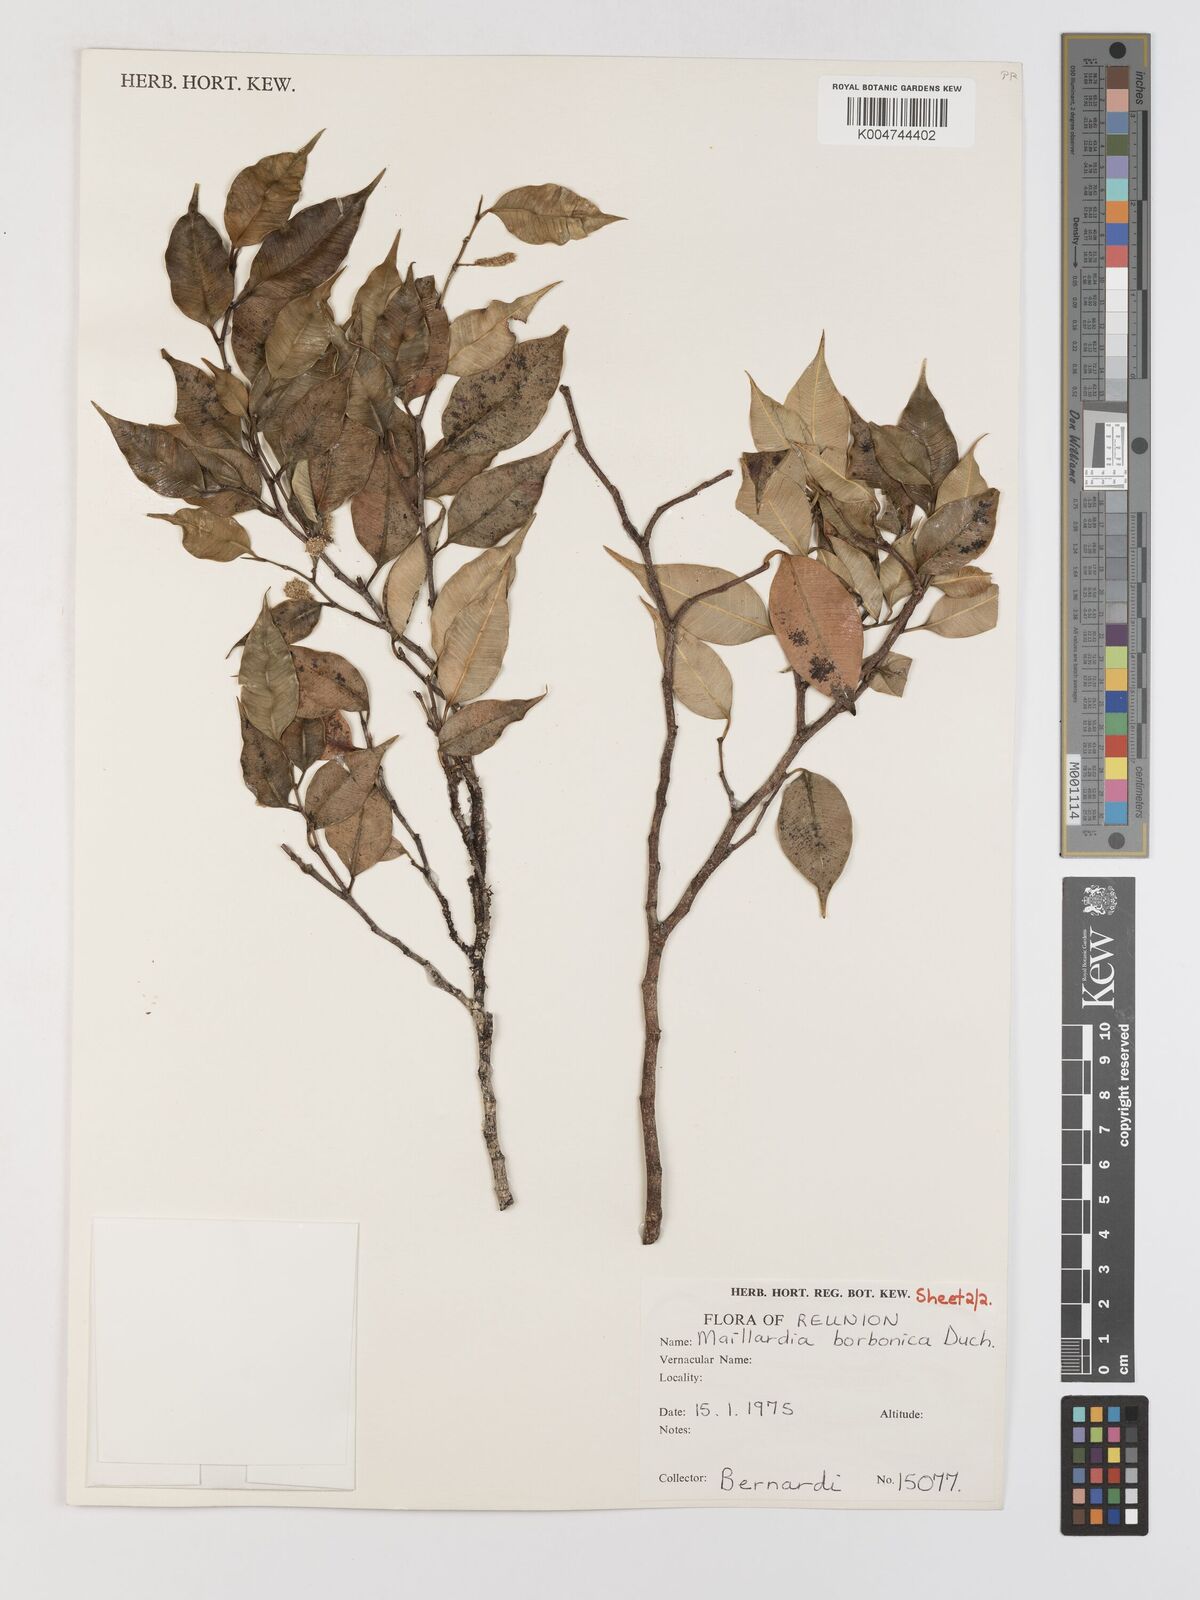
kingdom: Plantae
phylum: Tracheophyta
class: Magnoliopsida
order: Rosales
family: Moraceae
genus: Maillardia
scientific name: Maillardia borbonica
